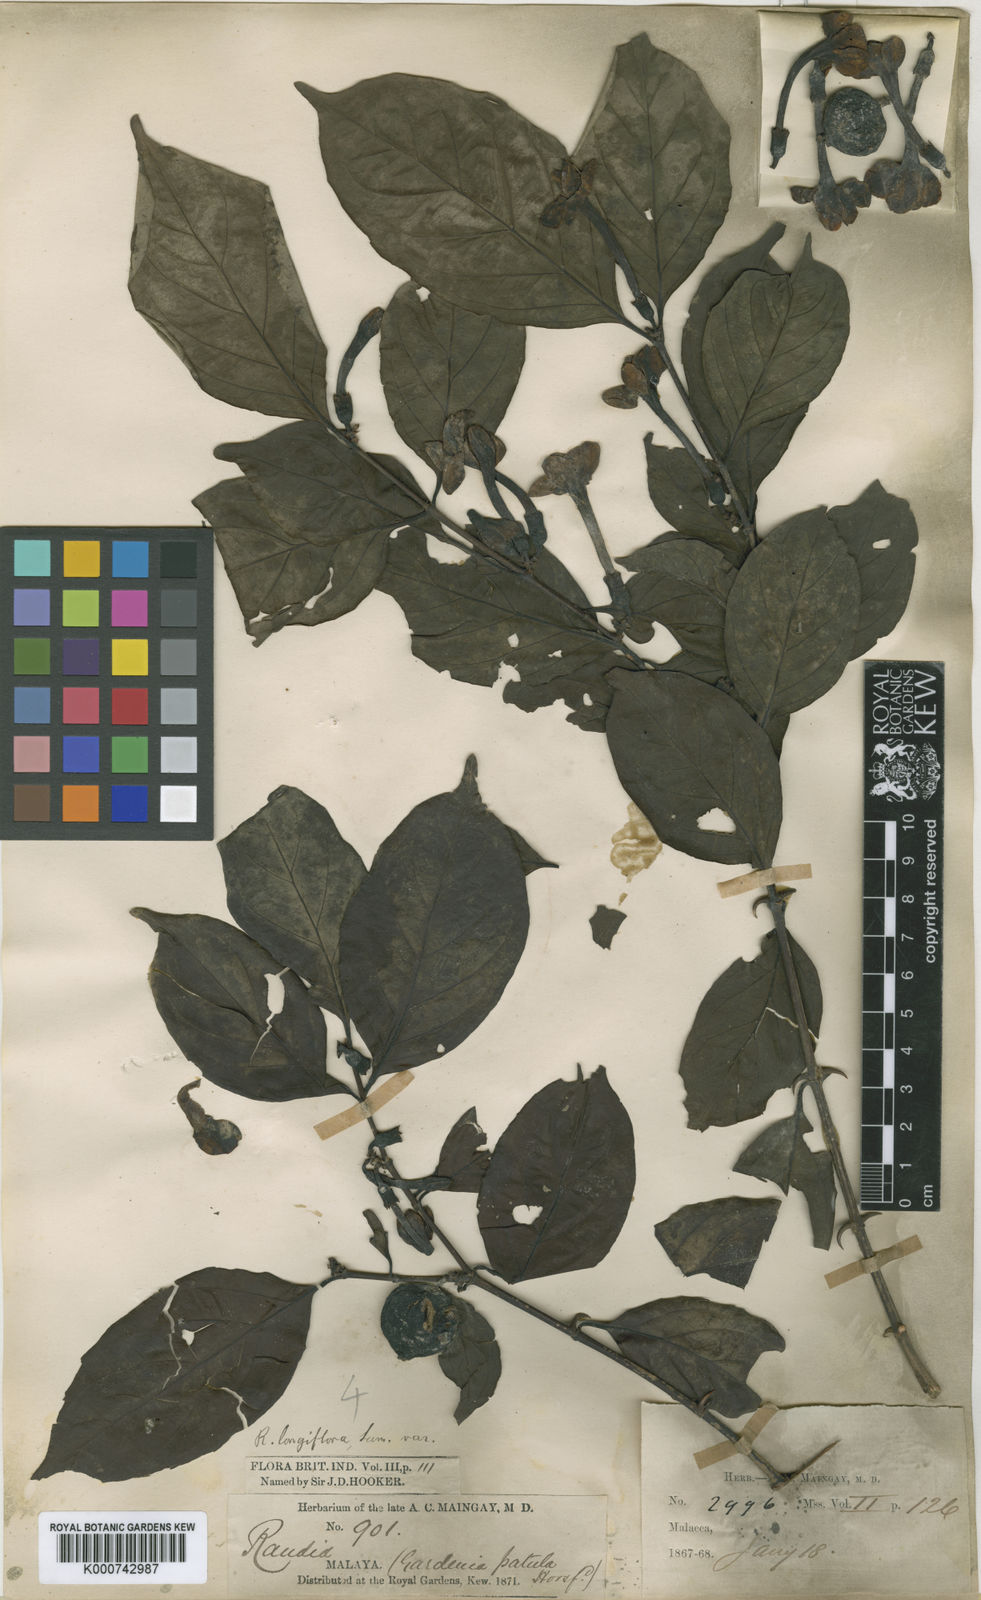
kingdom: Plantae
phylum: Tracheophyta
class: Magnoliopsida
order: Gentianales
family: Rubiaceae
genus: Oxyceros
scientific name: Oxyceros penangianus
